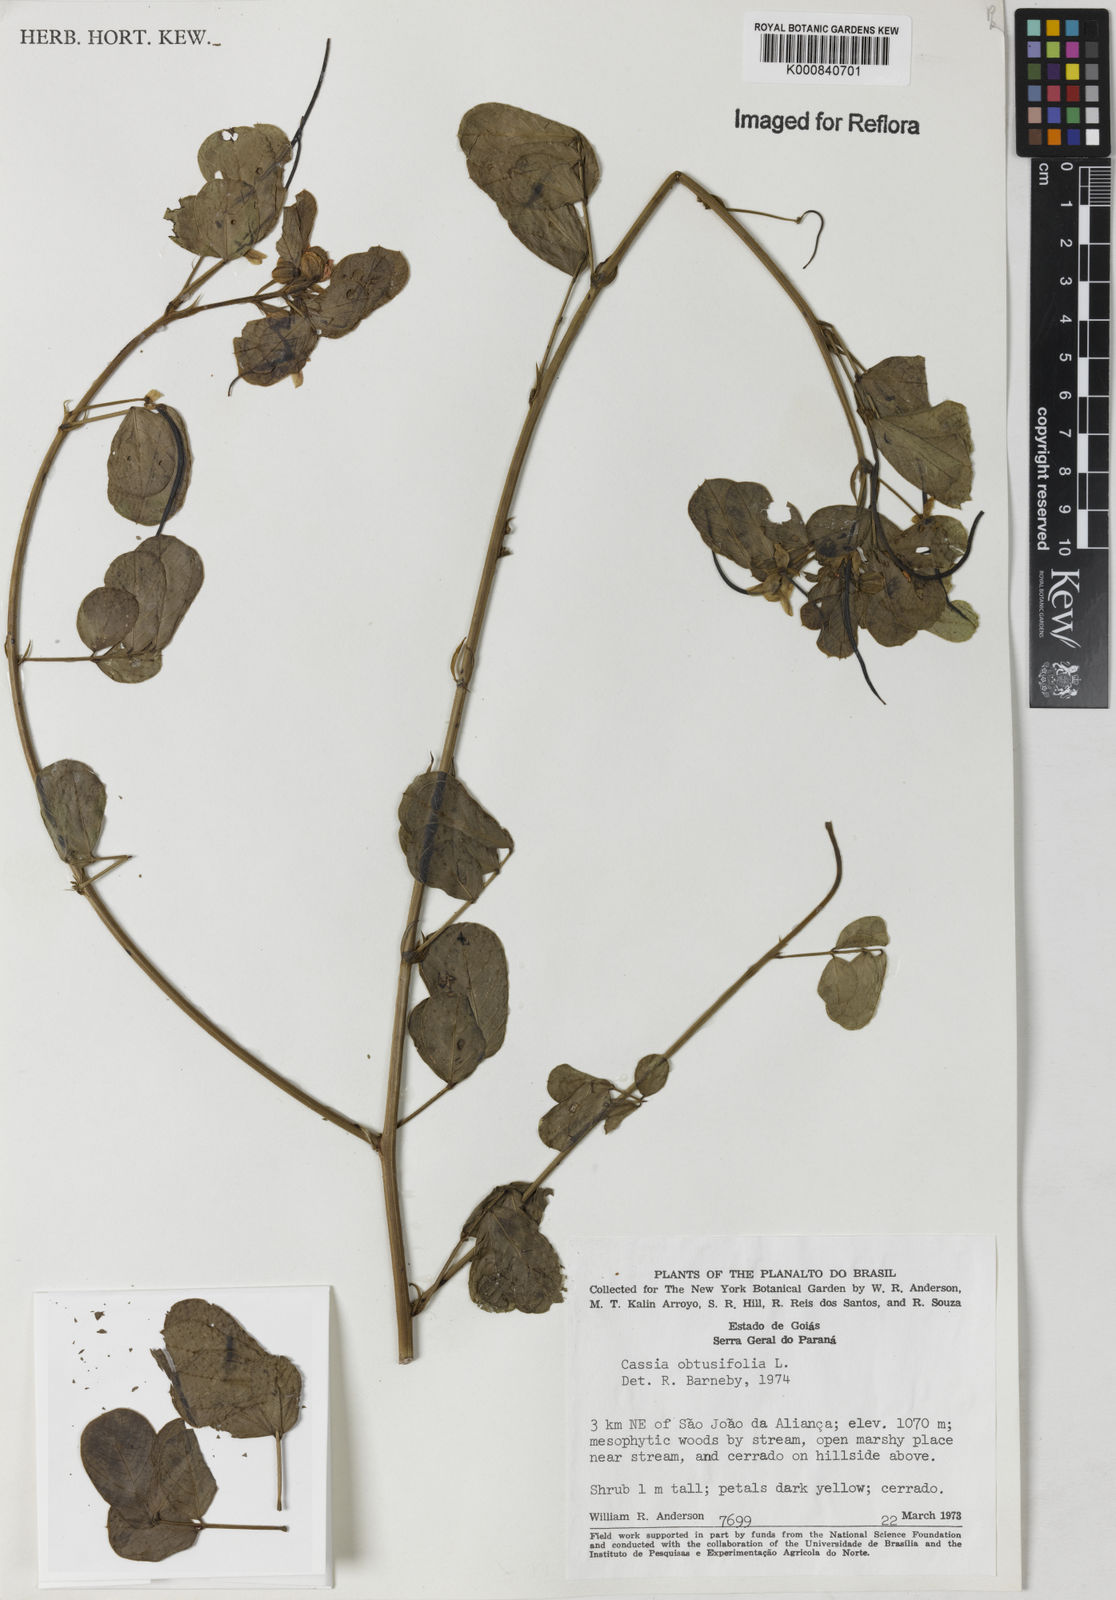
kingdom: Plantae
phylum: Tracheophyta
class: Magnoliopsida
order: Fabales
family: Fabaceae
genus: Senna
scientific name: Senna obtusifolia
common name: Java-bean
